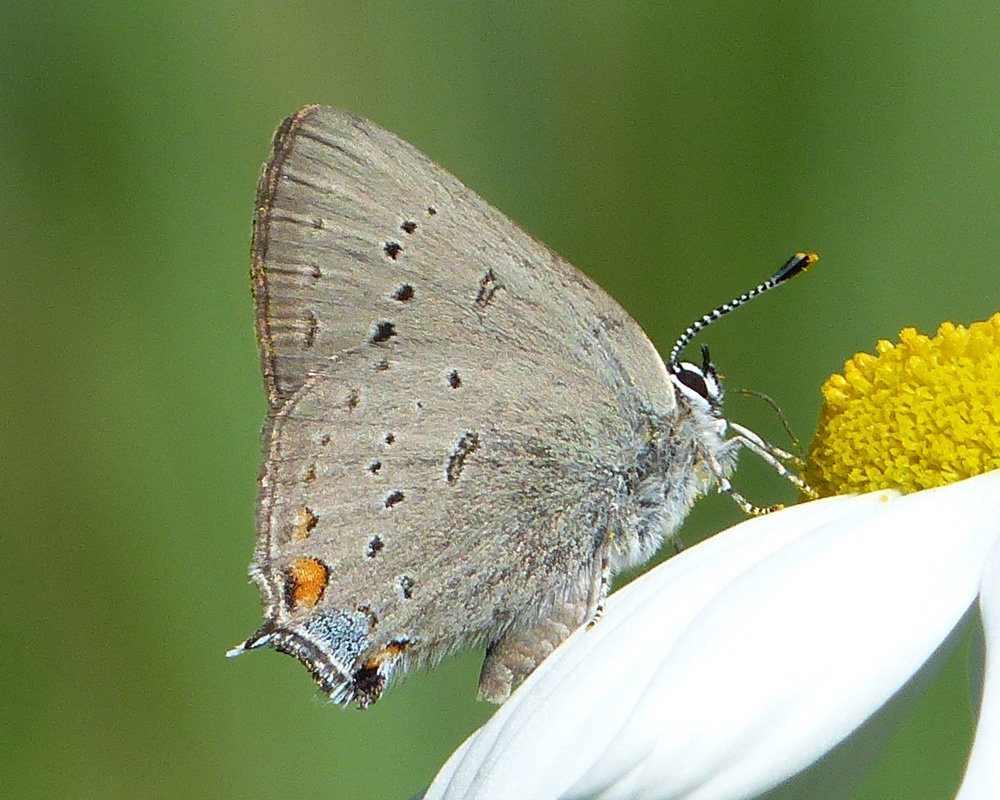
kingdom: Animalia
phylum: Arthropoda
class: Insecta
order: Lepidoptera
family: Lycaenidae
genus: Strymon
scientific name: Strymon sylvinus
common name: Sylvan Hairstreak
